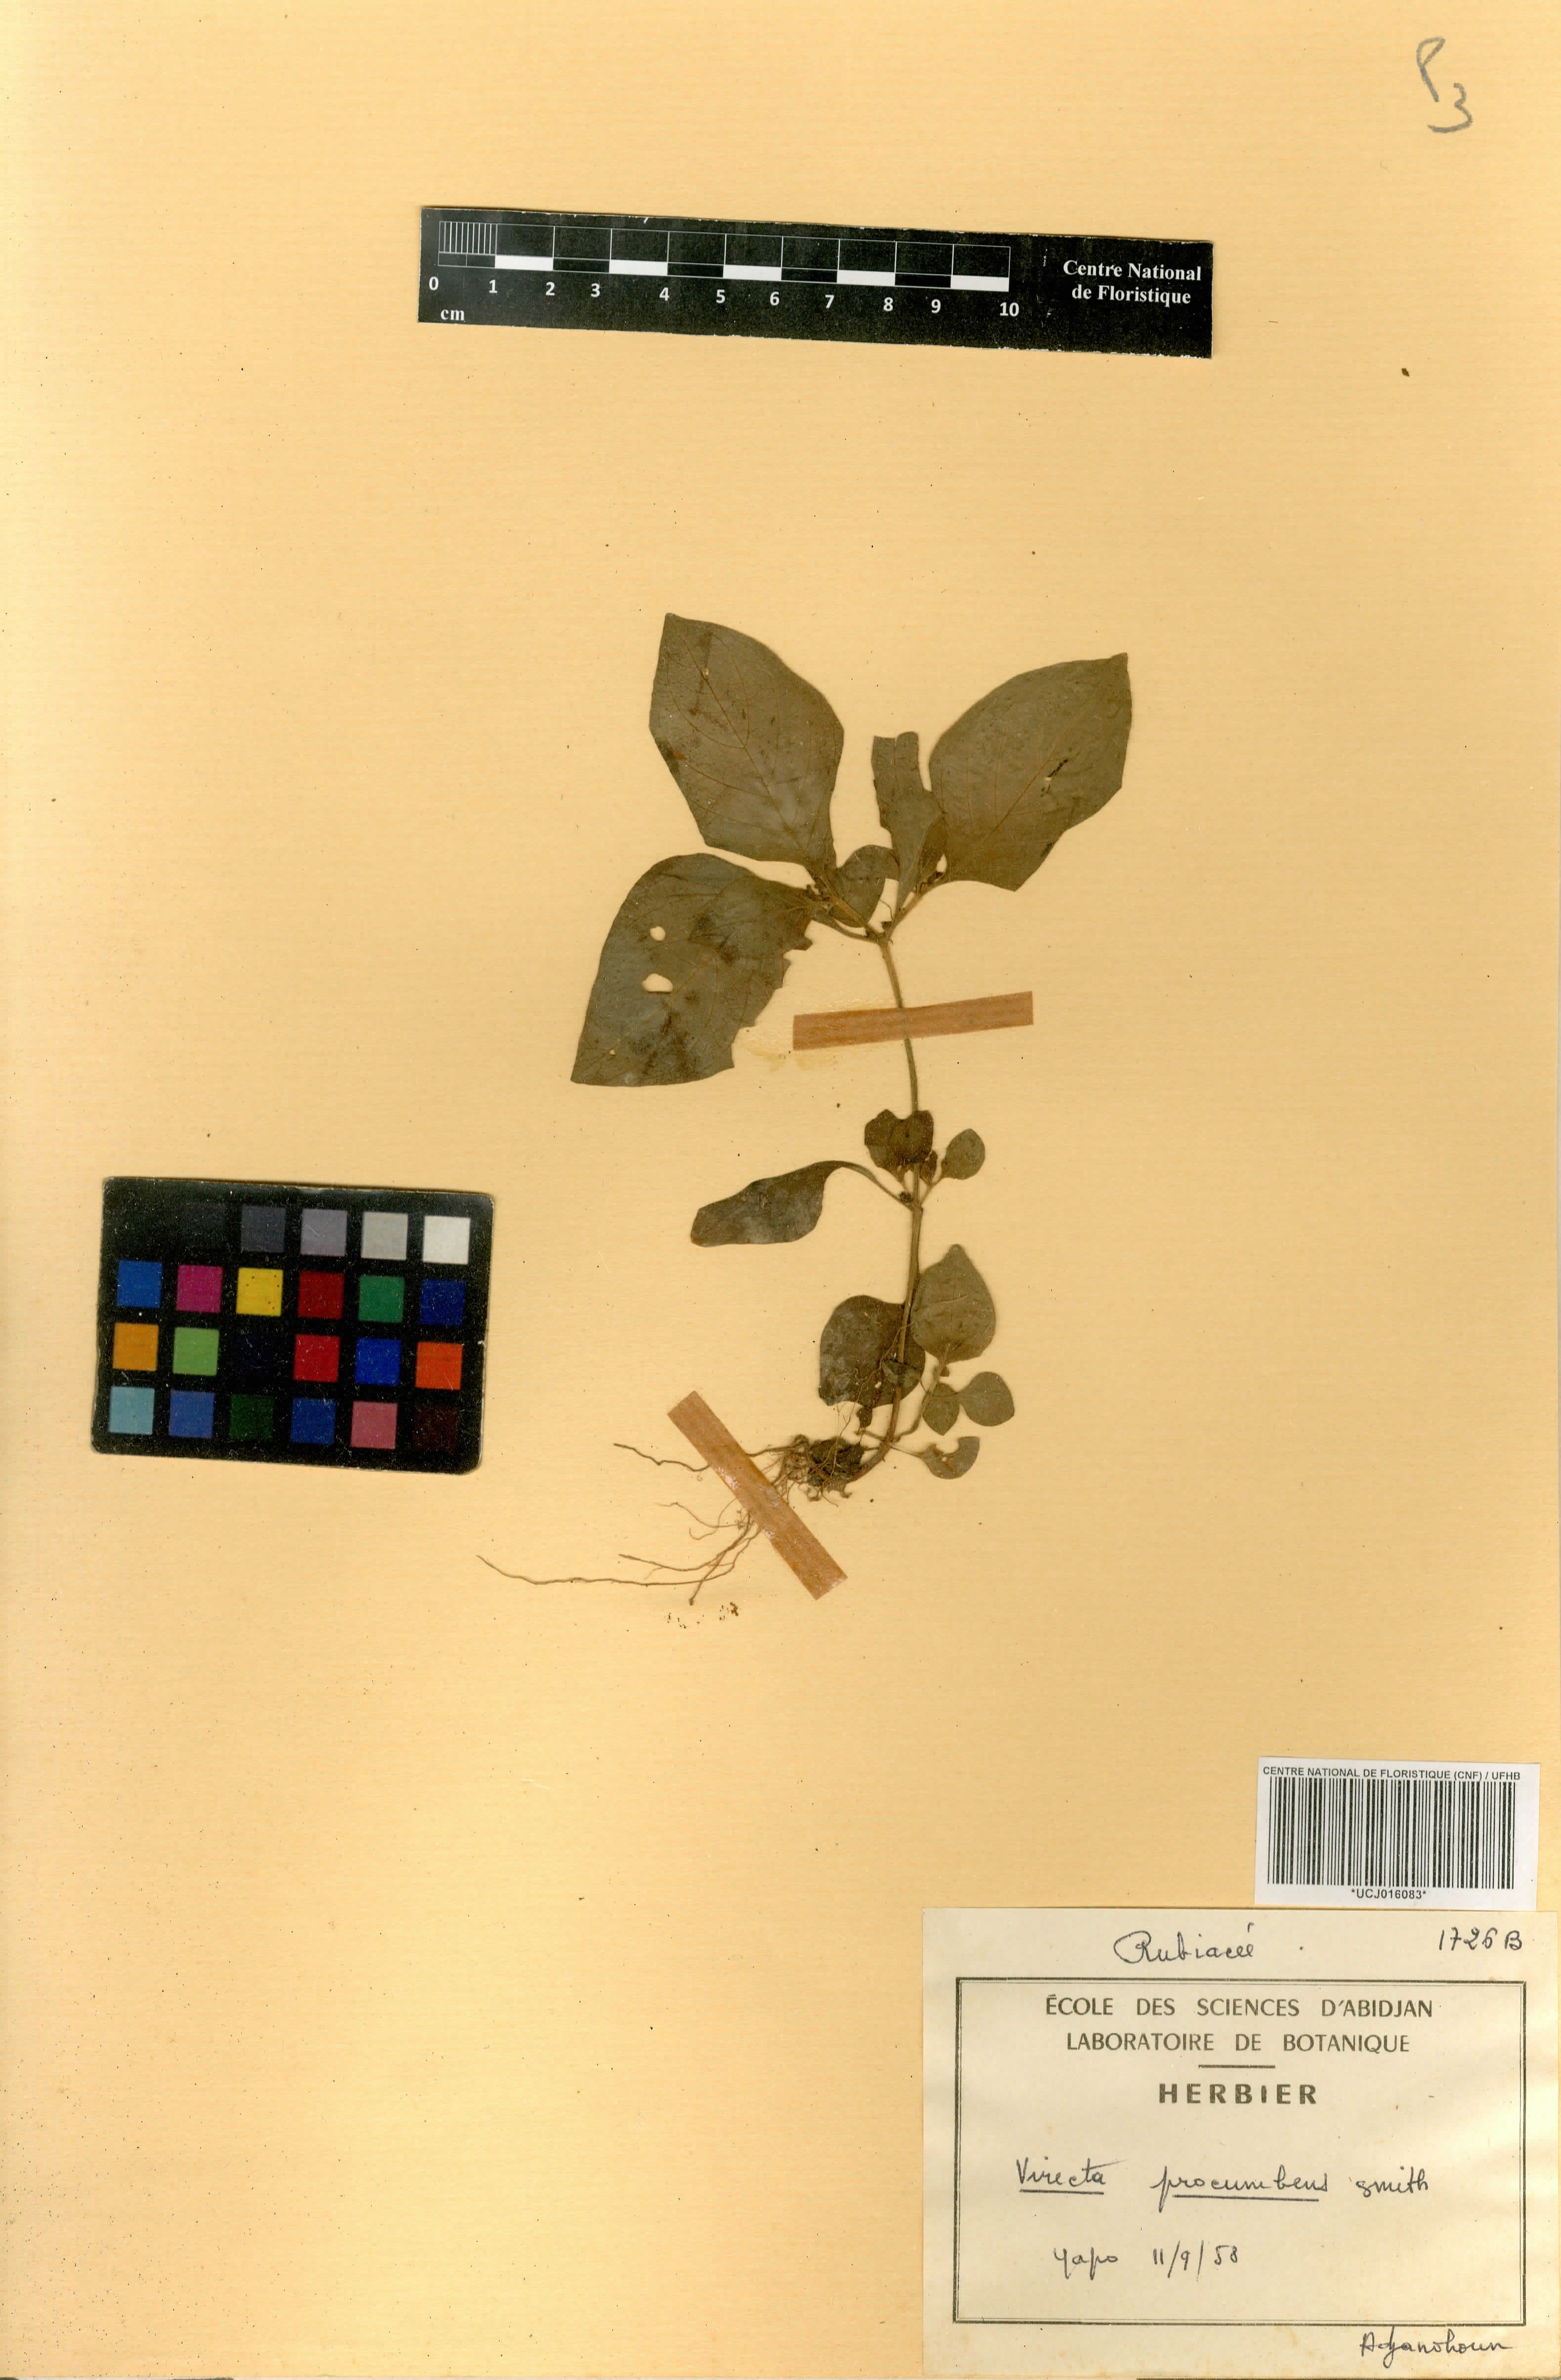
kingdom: Plantae
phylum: Tracheophyta
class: Magnoliopsida
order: Gentianales
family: Rubiaceae
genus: Virectaria
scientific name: Virectaria procumbens
